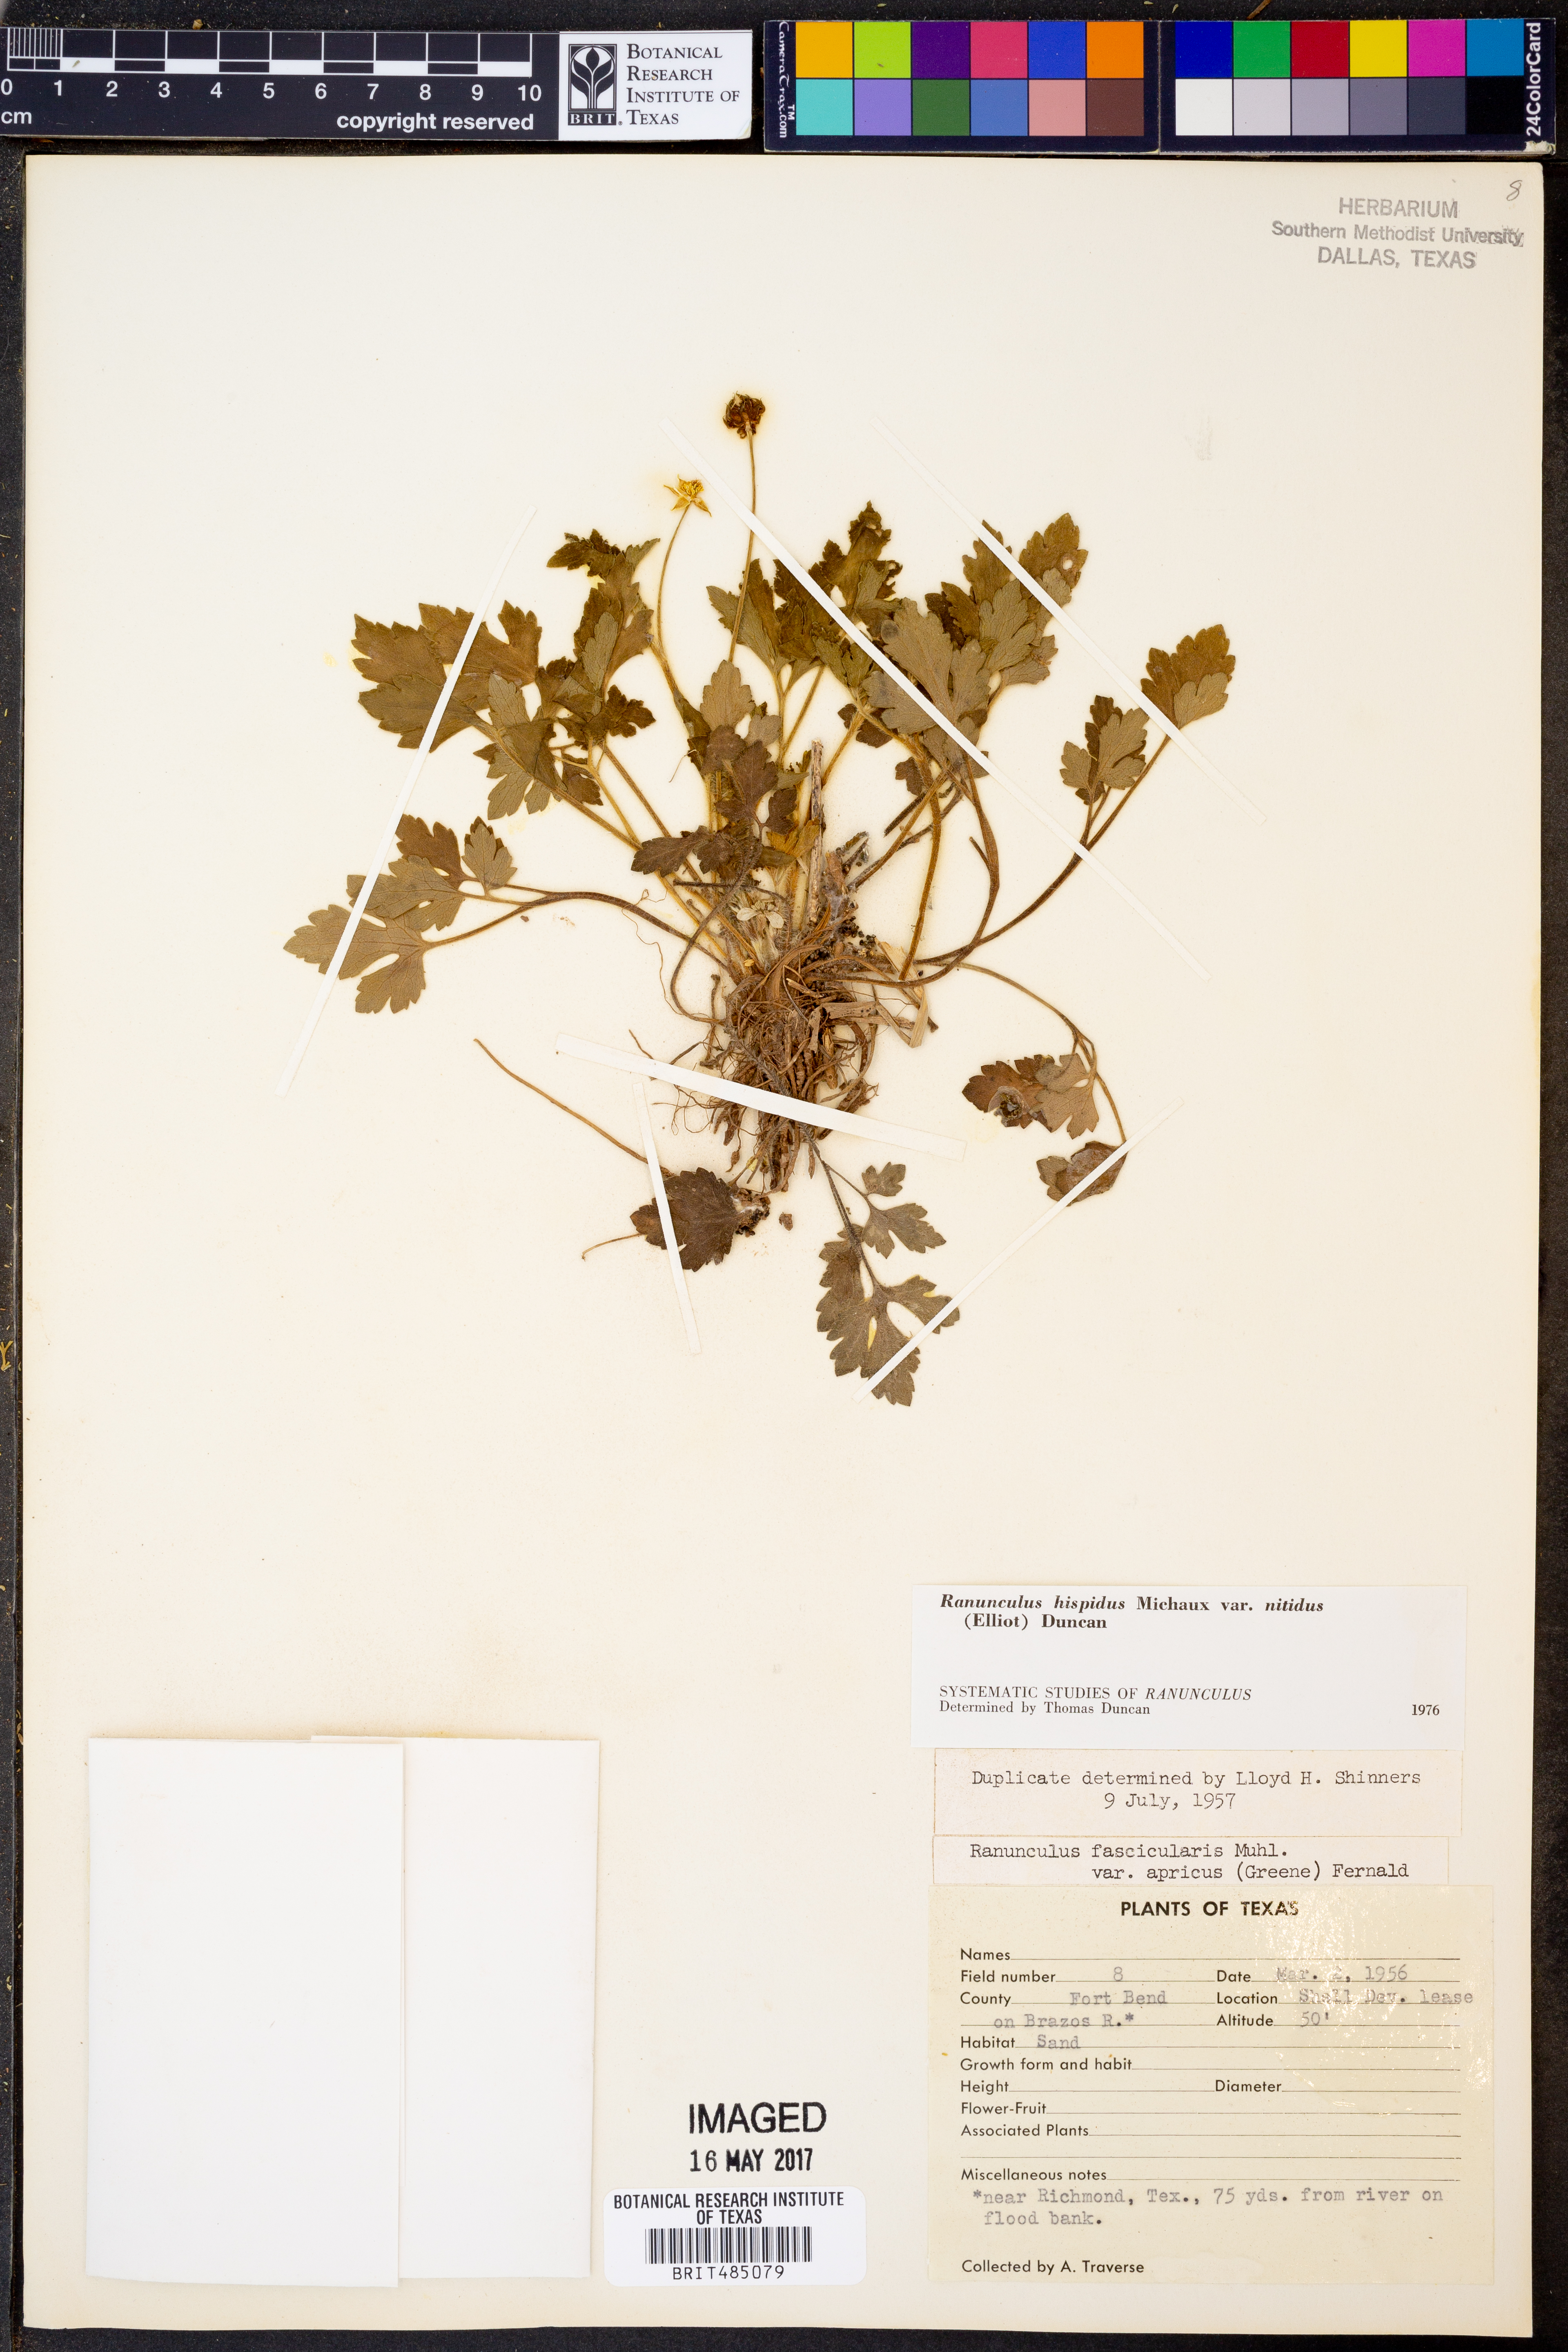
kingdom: Plantae
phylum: Tracheophyta
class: Magnoliopsida
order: Ranunculales
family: Ranunculaceae
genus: Ranunculus
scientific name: Ranunculus hispidus
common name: Bristly buttercup
